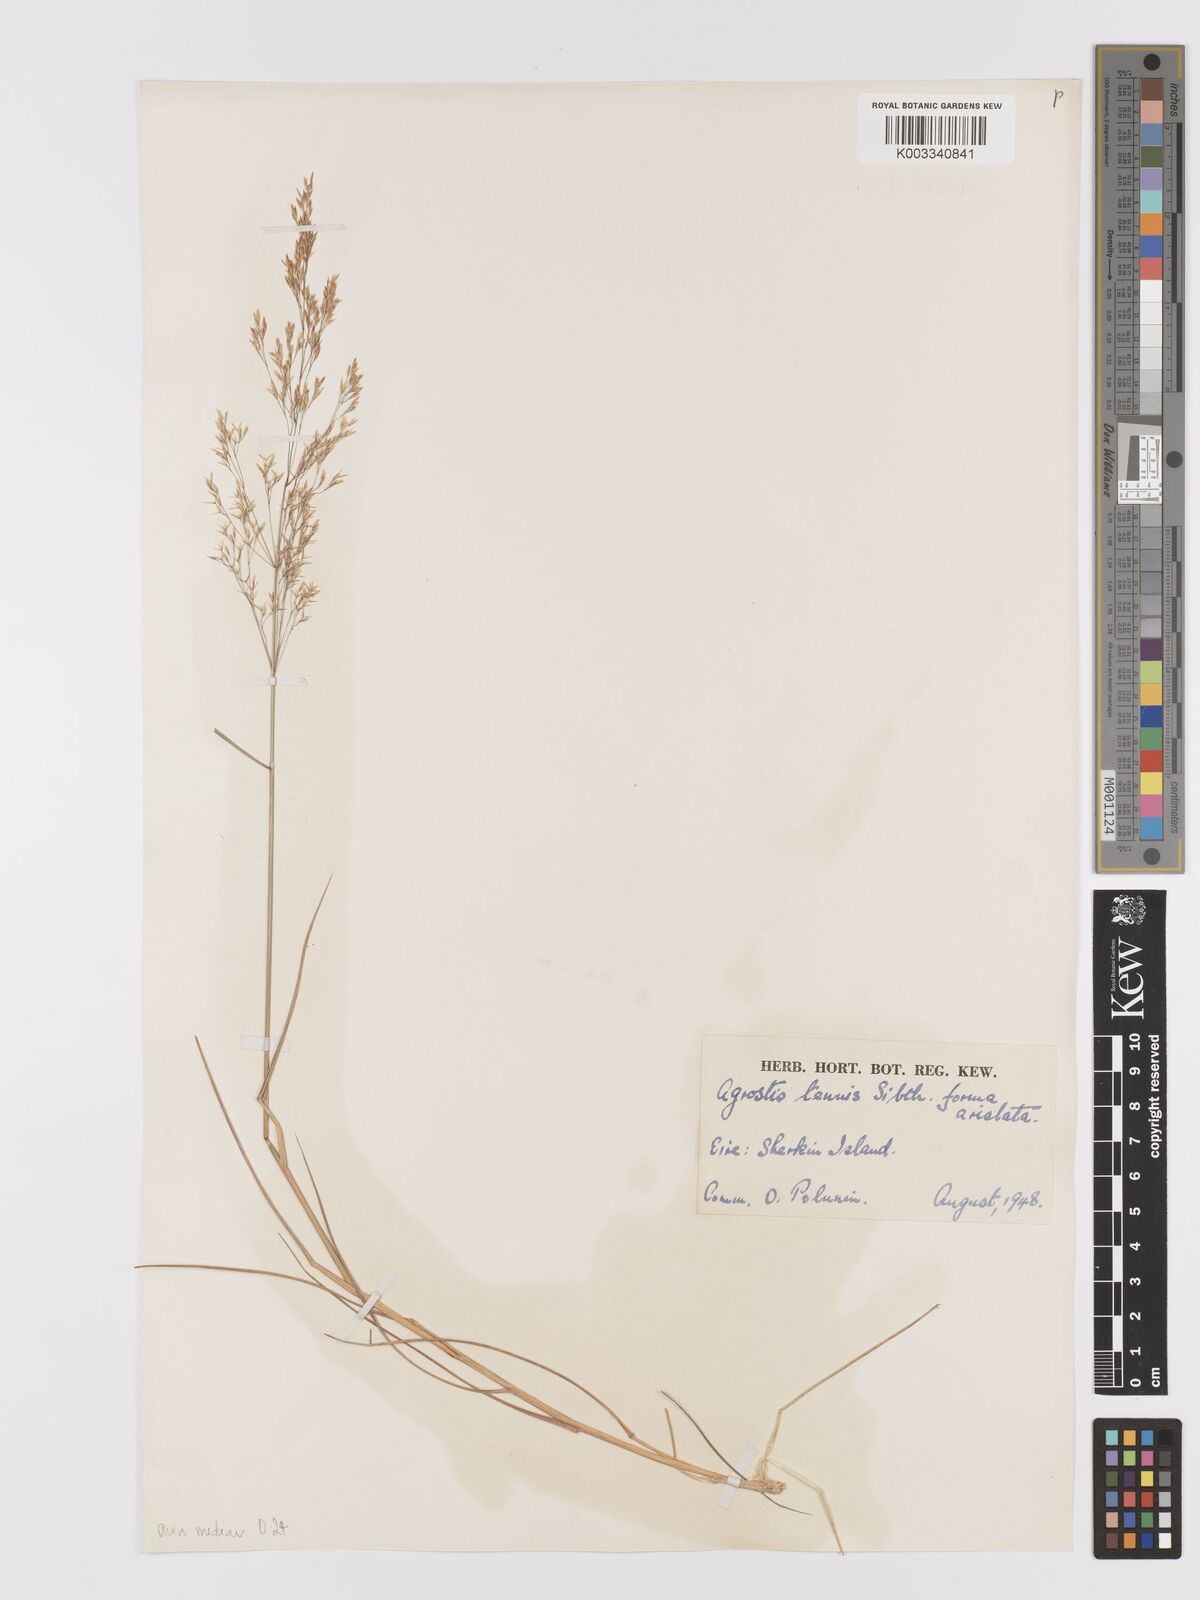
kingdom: Plantae
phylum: Tracheophyta
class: Liliopsida
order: Poales
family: Poaceae
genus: Agrostis
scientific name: Agrostis capillaris
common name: Colonial bentgrass
